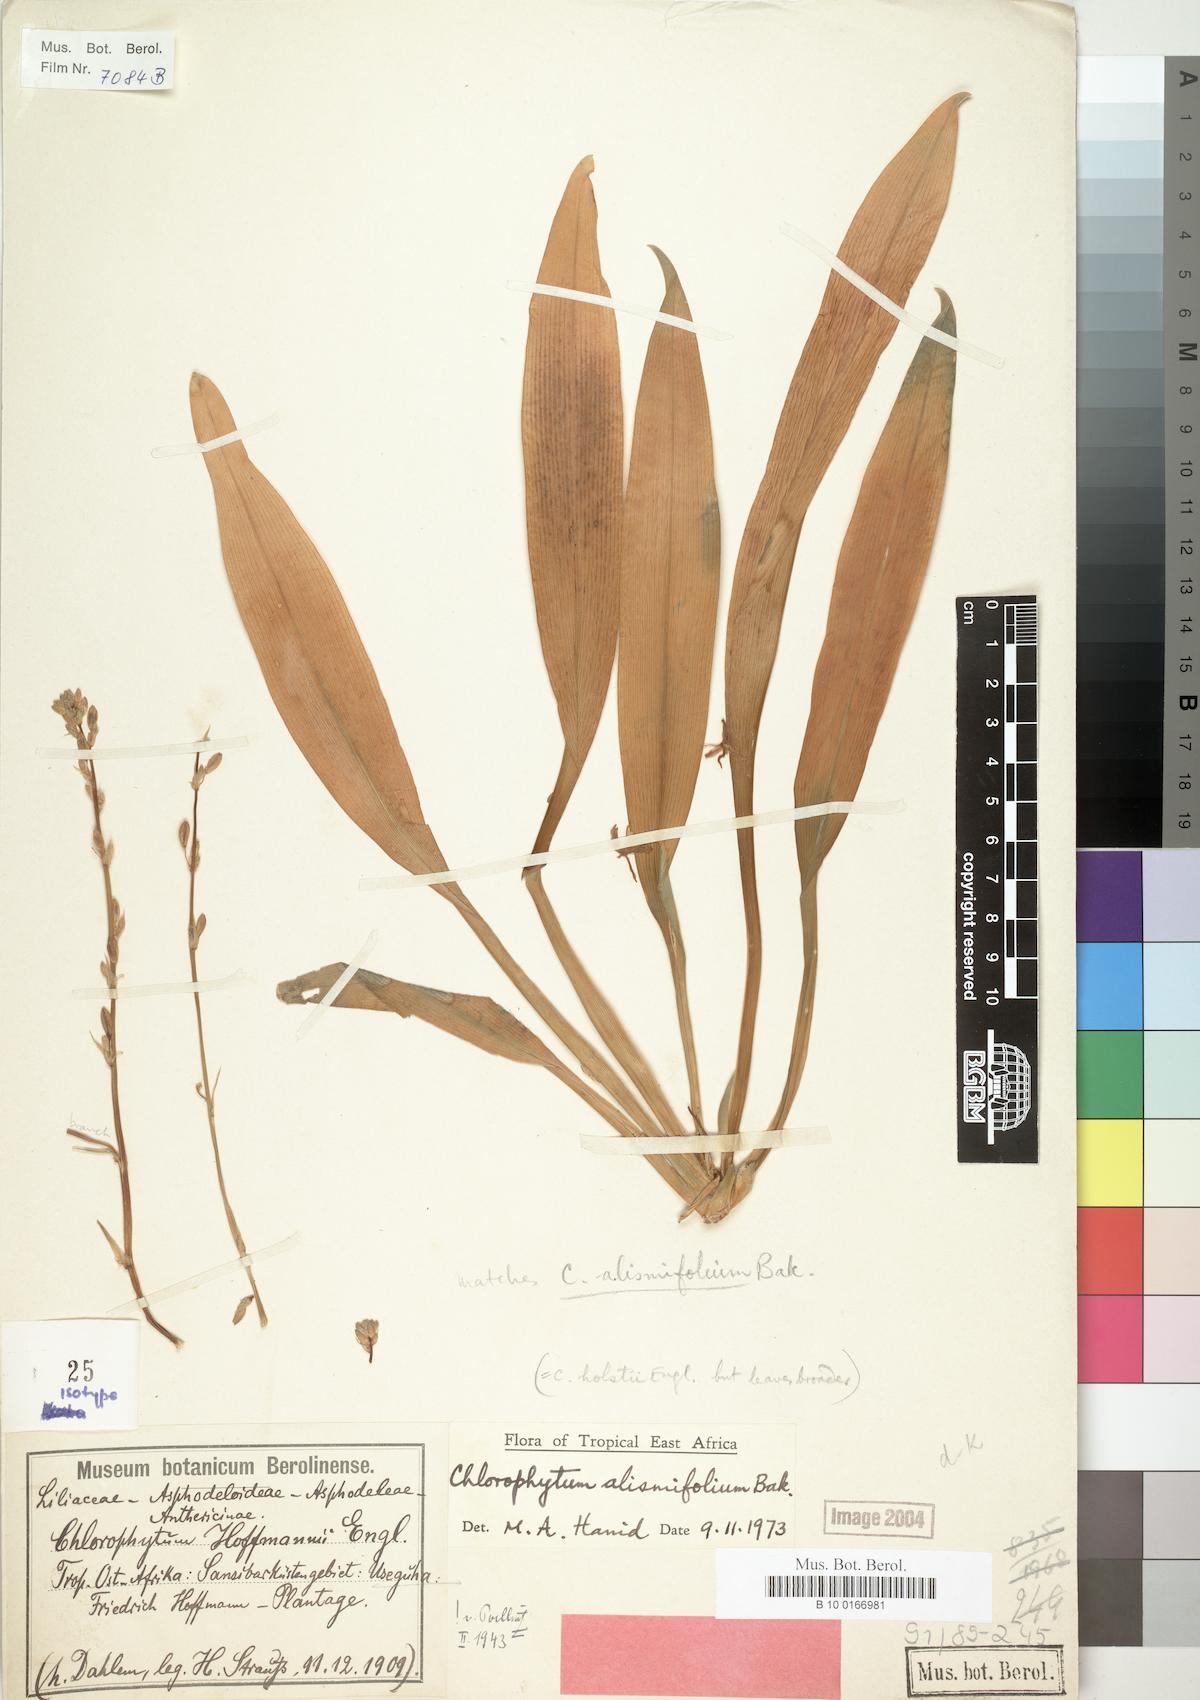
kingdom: Plantae
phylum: Tracheophyta
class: Liliopsida
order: Asparagales
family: Asparagaceae
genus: Chlorophytum
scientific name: Chlorophytum holstii
